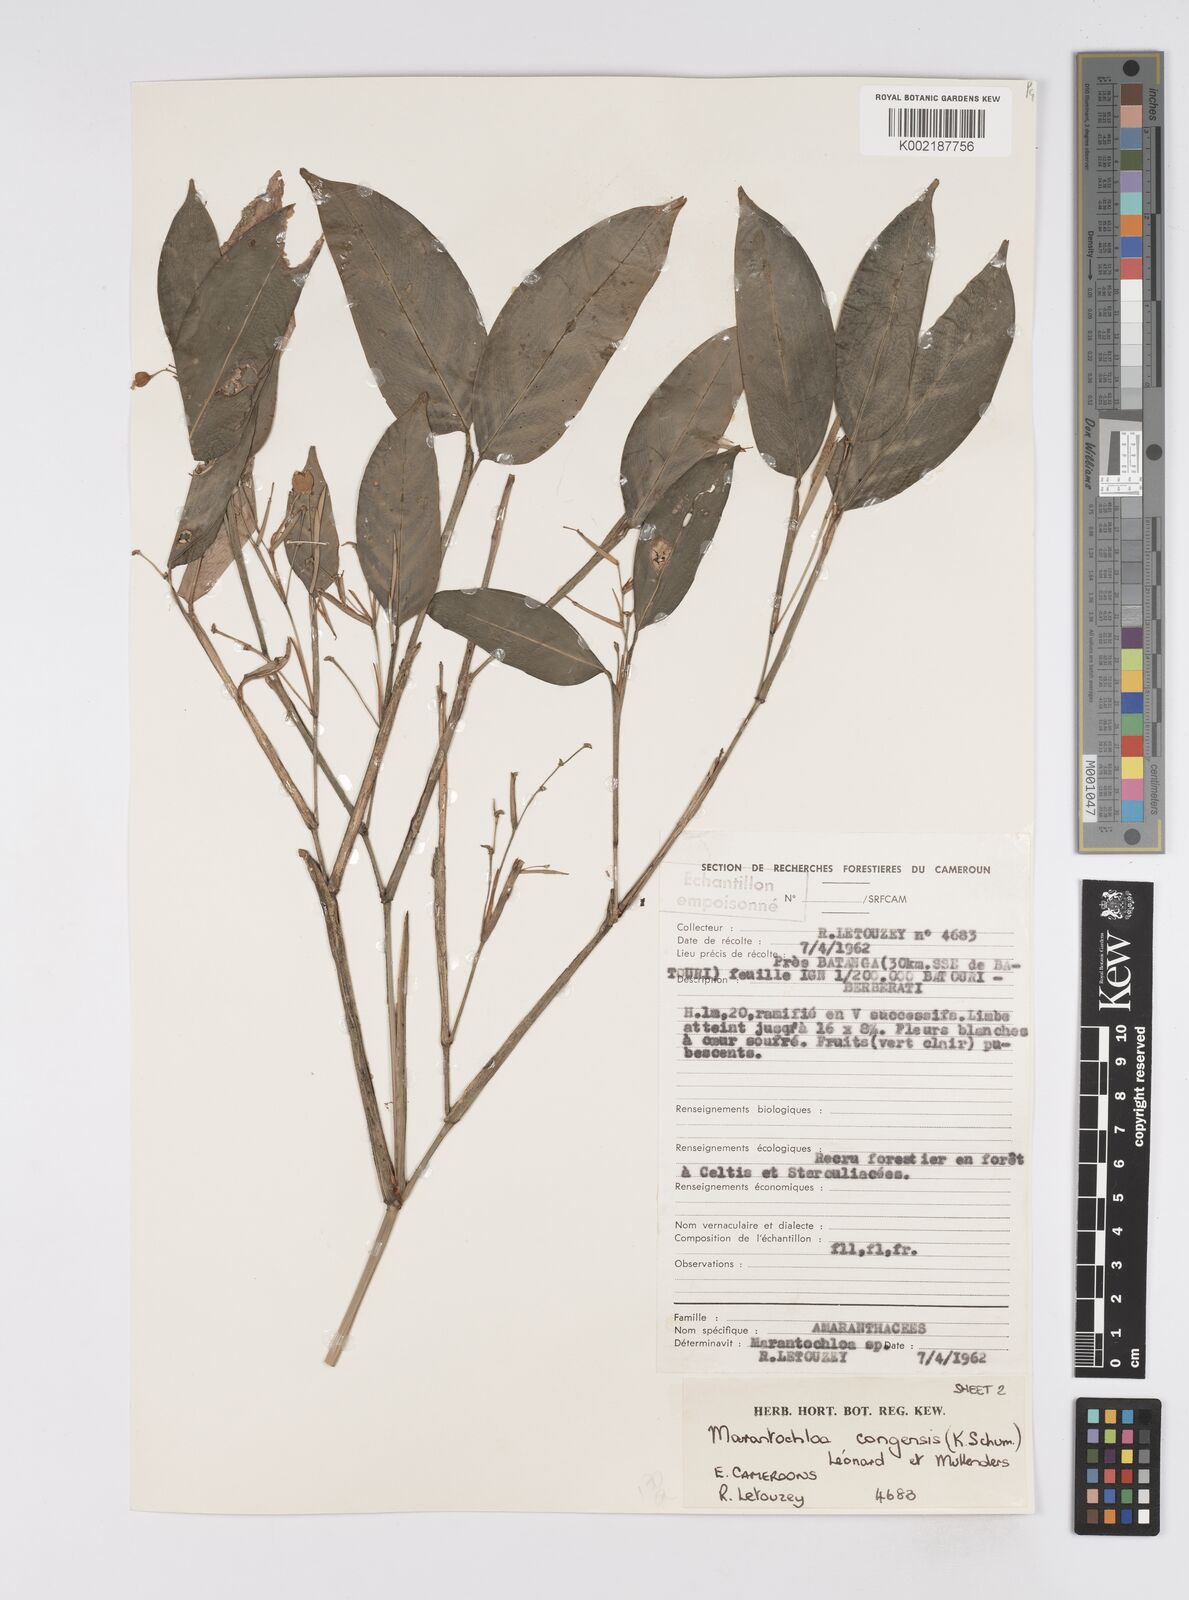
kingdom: Plantae
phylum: Tracheophyta
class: Liliopsida
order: Zingiberales
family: Marantaceae
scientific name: Marantaceae
